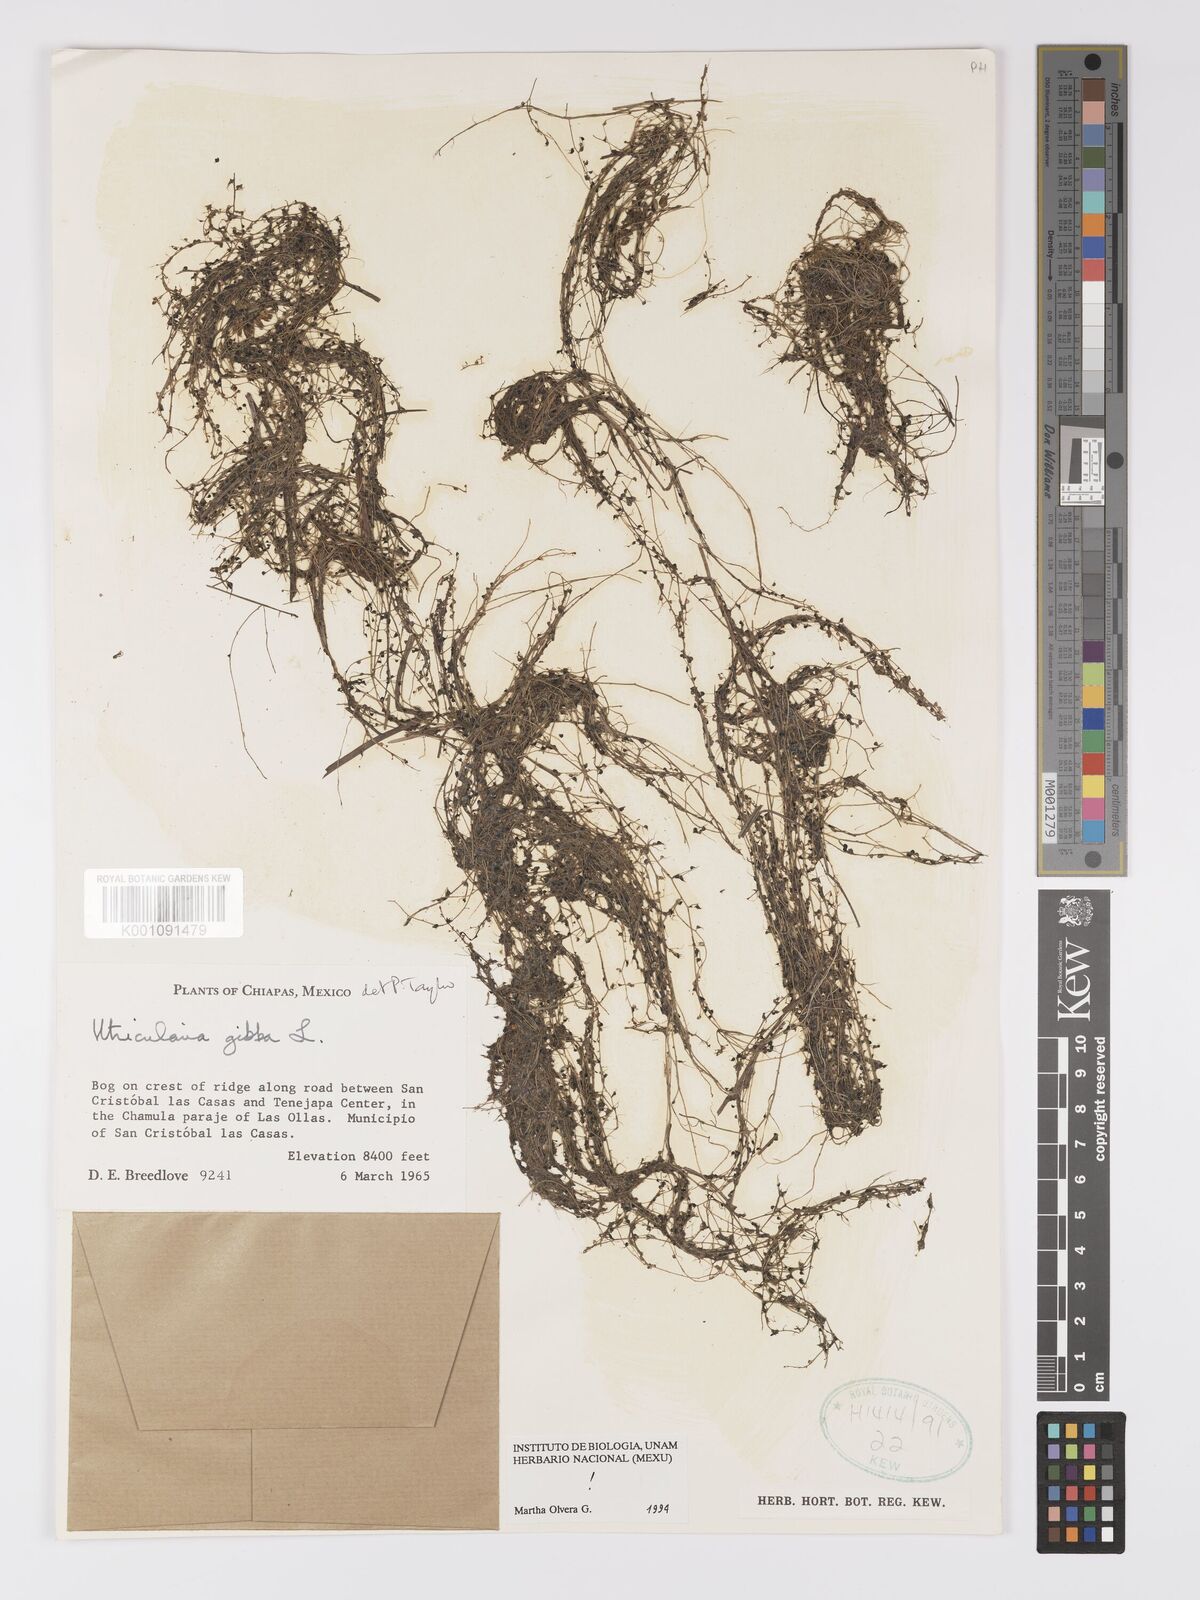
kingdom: Plantae
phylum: Tracheophyta
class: Magnoliopsida
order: Lamiales
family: Lentibulariaceae
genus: Utricularia
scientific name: Utricularia gibba
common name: Humped bladderwort
